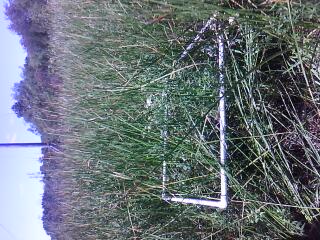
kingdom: Plantae
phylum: Tracheophyta
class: Magnoliopsida
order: Rosales
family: Rosaceae
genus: Dasiphora
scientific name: Dasiphora fruticosa
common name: Shrubby cinquefoil
